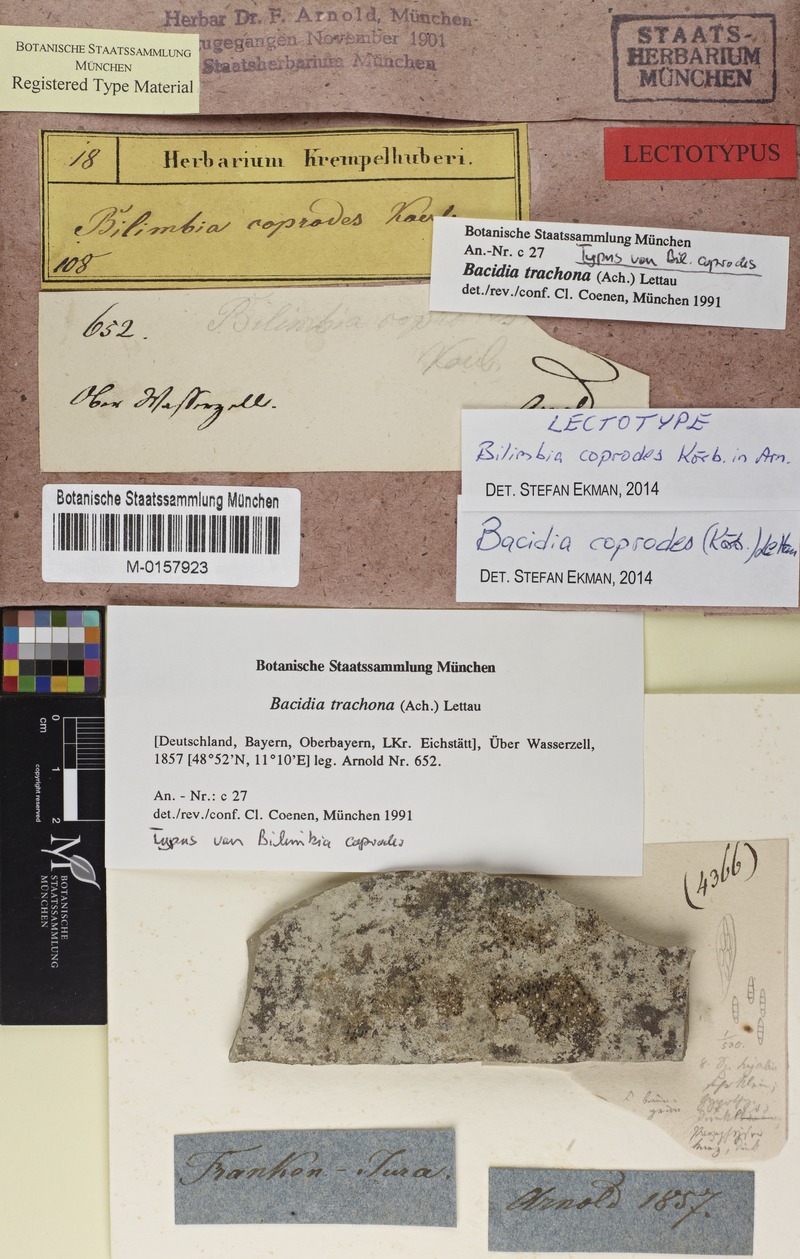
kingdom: Fungi
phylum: Ascomycota
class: Lecanoromycetes
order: Lecanorales
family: Ramalinaceae
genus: Toniniopsis
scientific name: Toniniopsis coprodes
